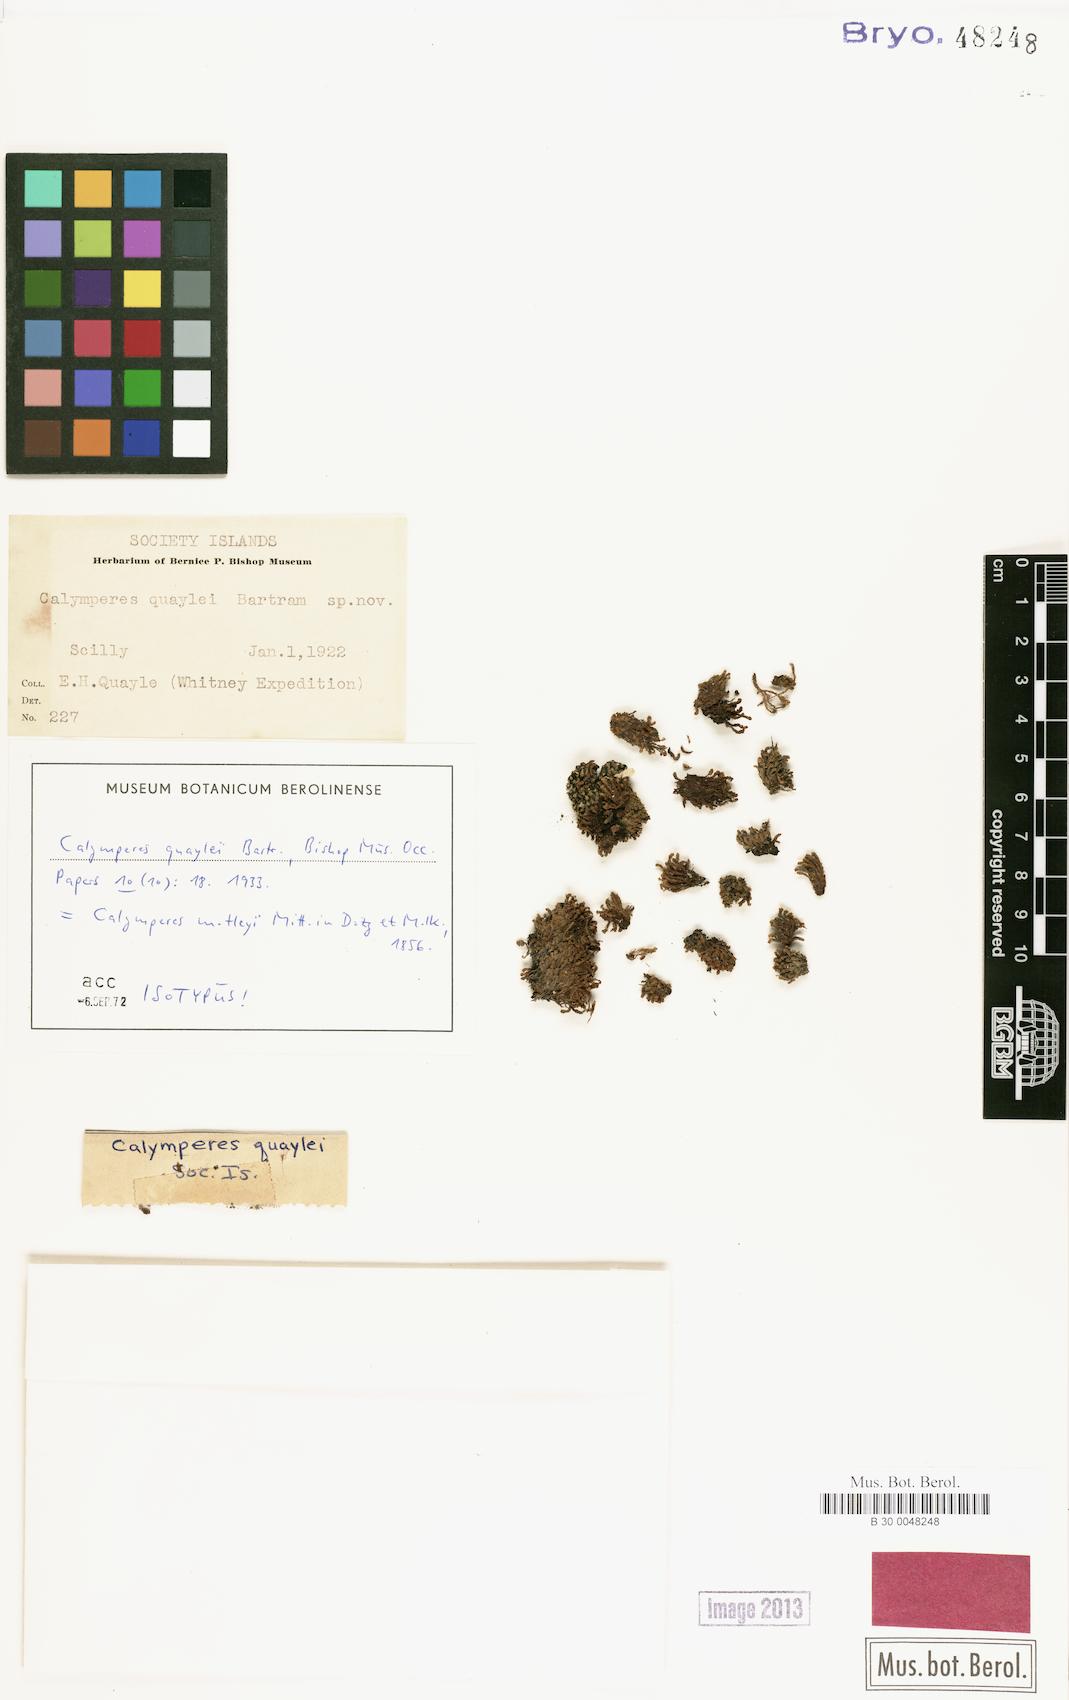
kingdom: Plantae
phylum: Bryophyta
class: Bryopsida
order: Dicranales
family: Calymperaceae
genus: Calymperes
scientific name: Calymperes motleyi
